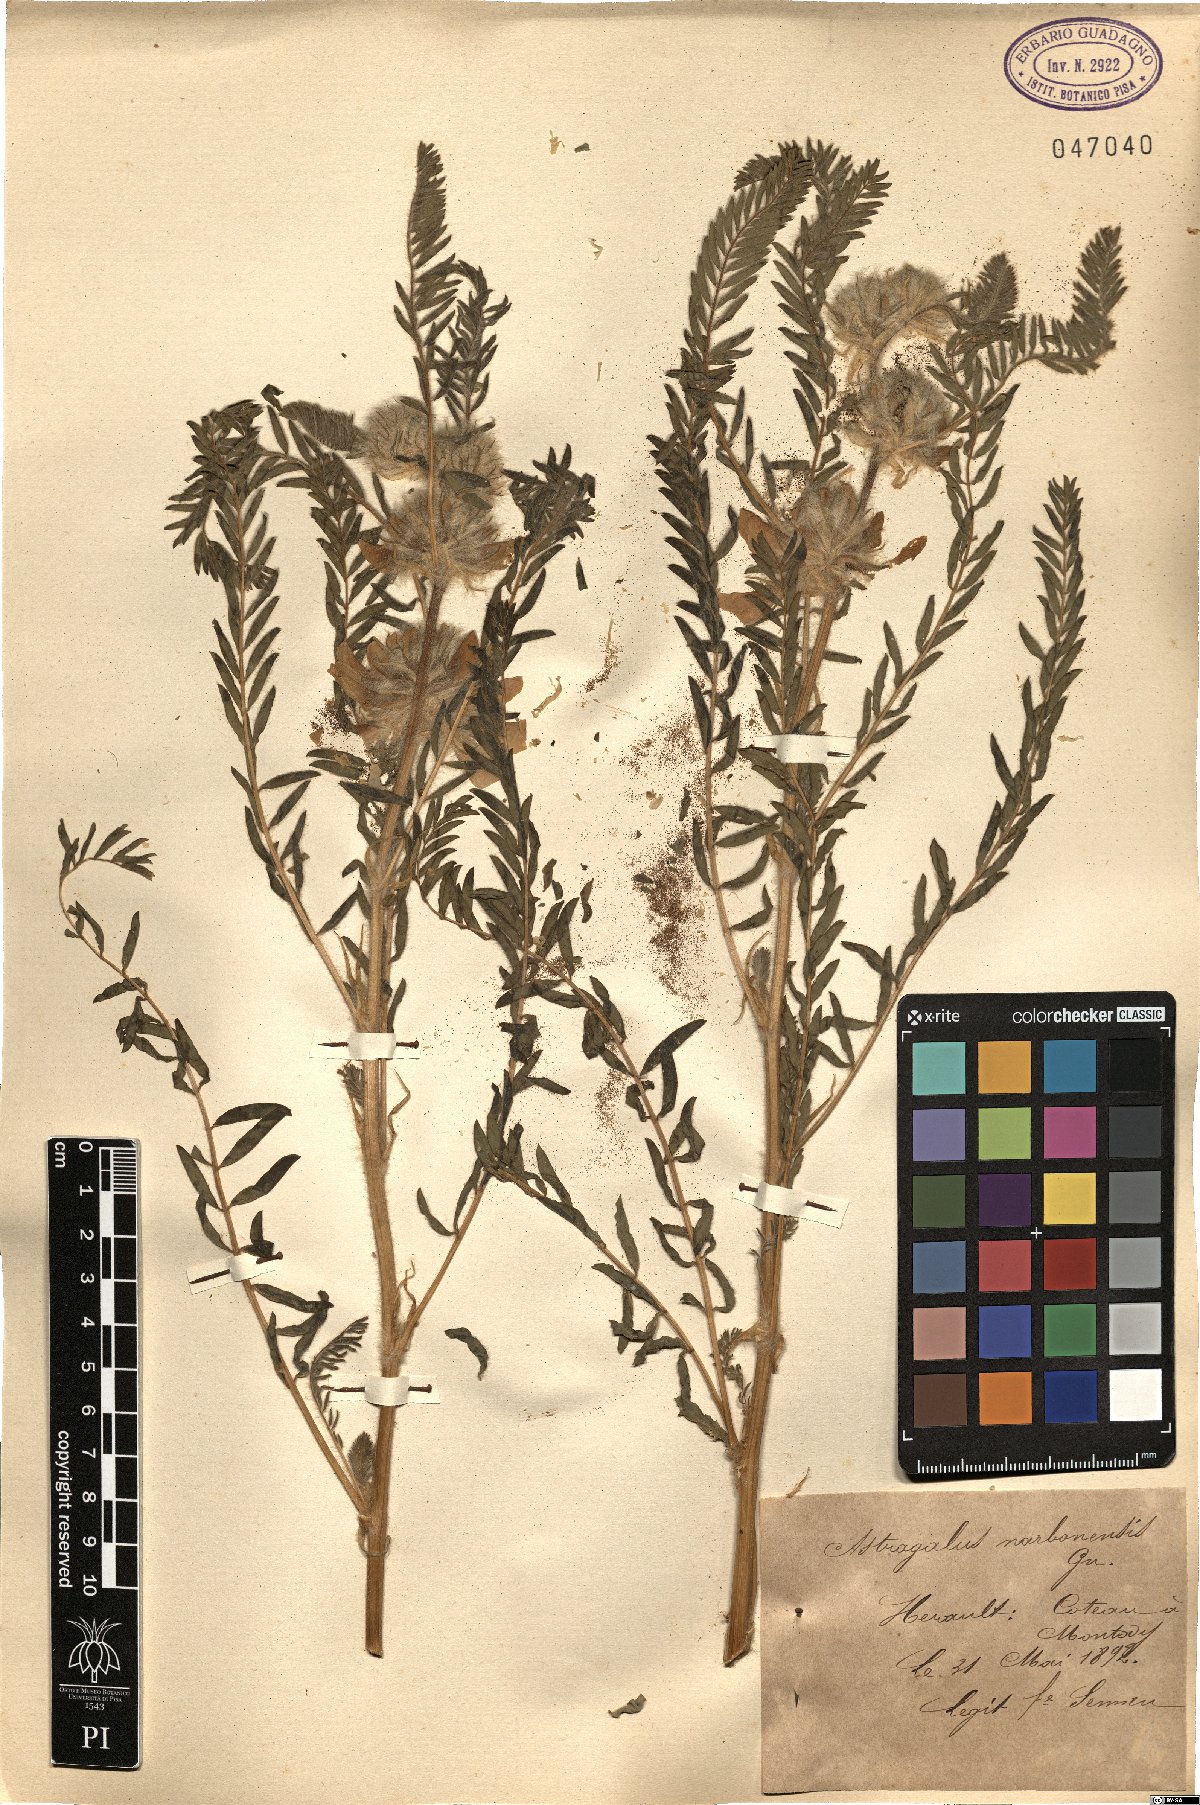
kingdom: Plantae
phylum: Tracheophyta
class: Magnoliopsida
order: Fabales
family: Fabaceae
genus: Astragalus
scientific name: Astragalus alopecuroides
